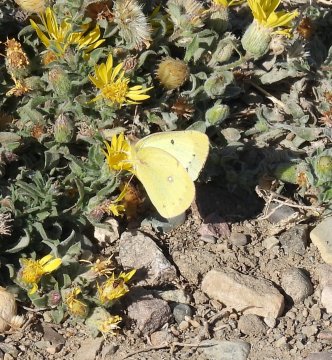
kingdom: Animalia
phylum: Arthropoda
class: Insecta
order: Lepidoptera
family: Pieridae
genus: Colias
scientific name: Colias eurytheme
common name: Orange Sulphur
